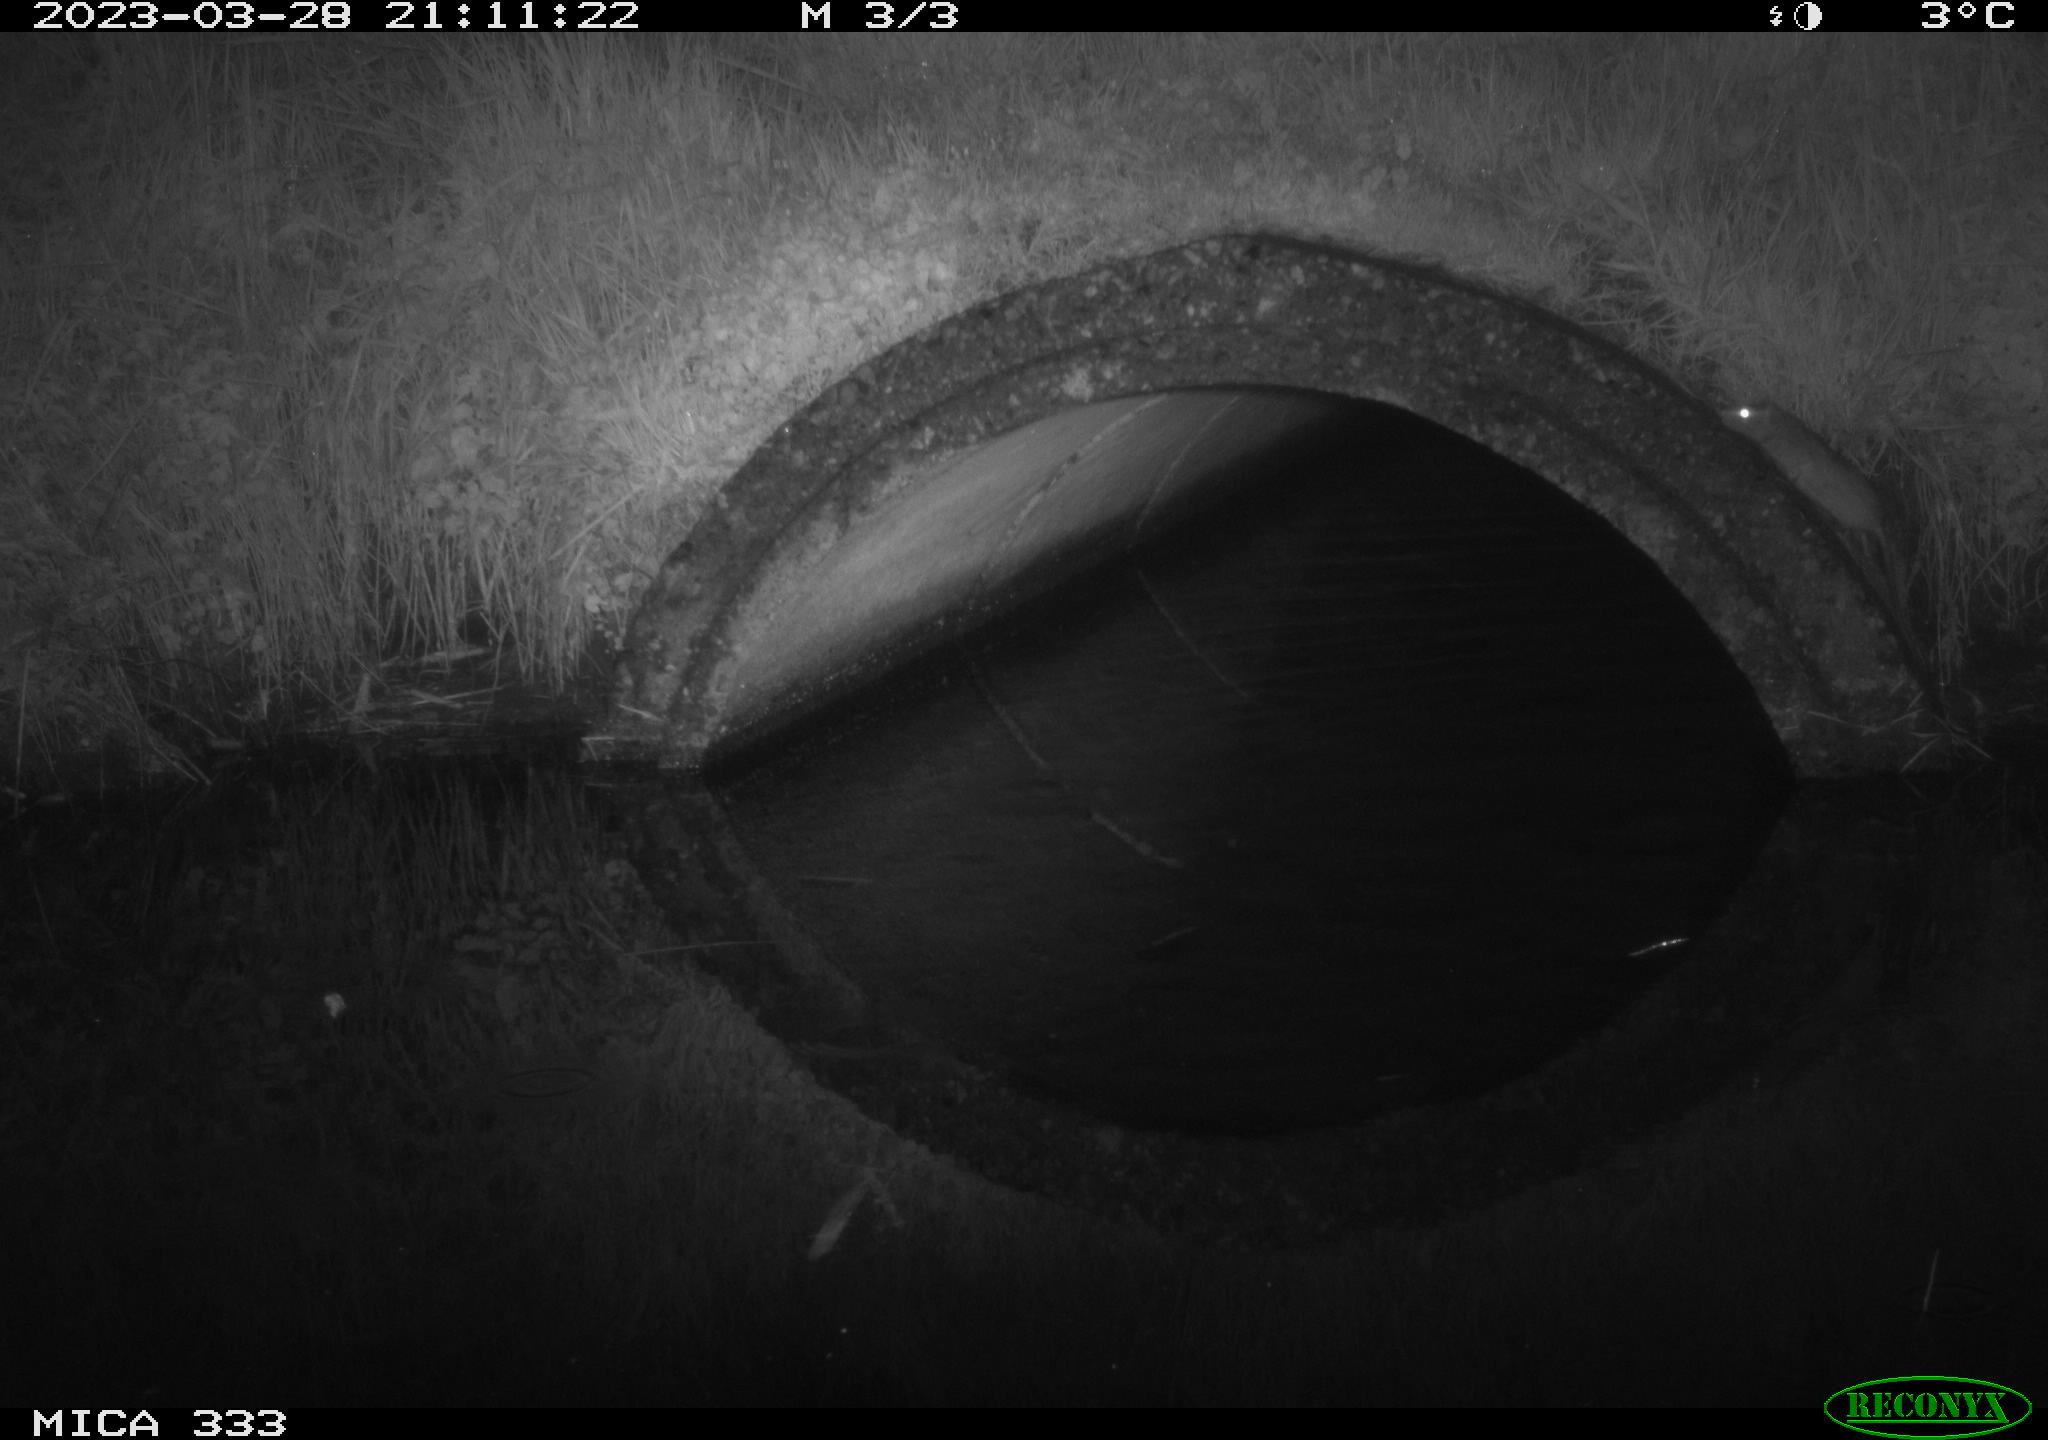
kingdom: Animalia
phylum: Chordata
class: Mammalia
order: Rodentia
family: Muridae
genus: Rattus
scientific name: Rattus norvegicus
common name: Brown rat
